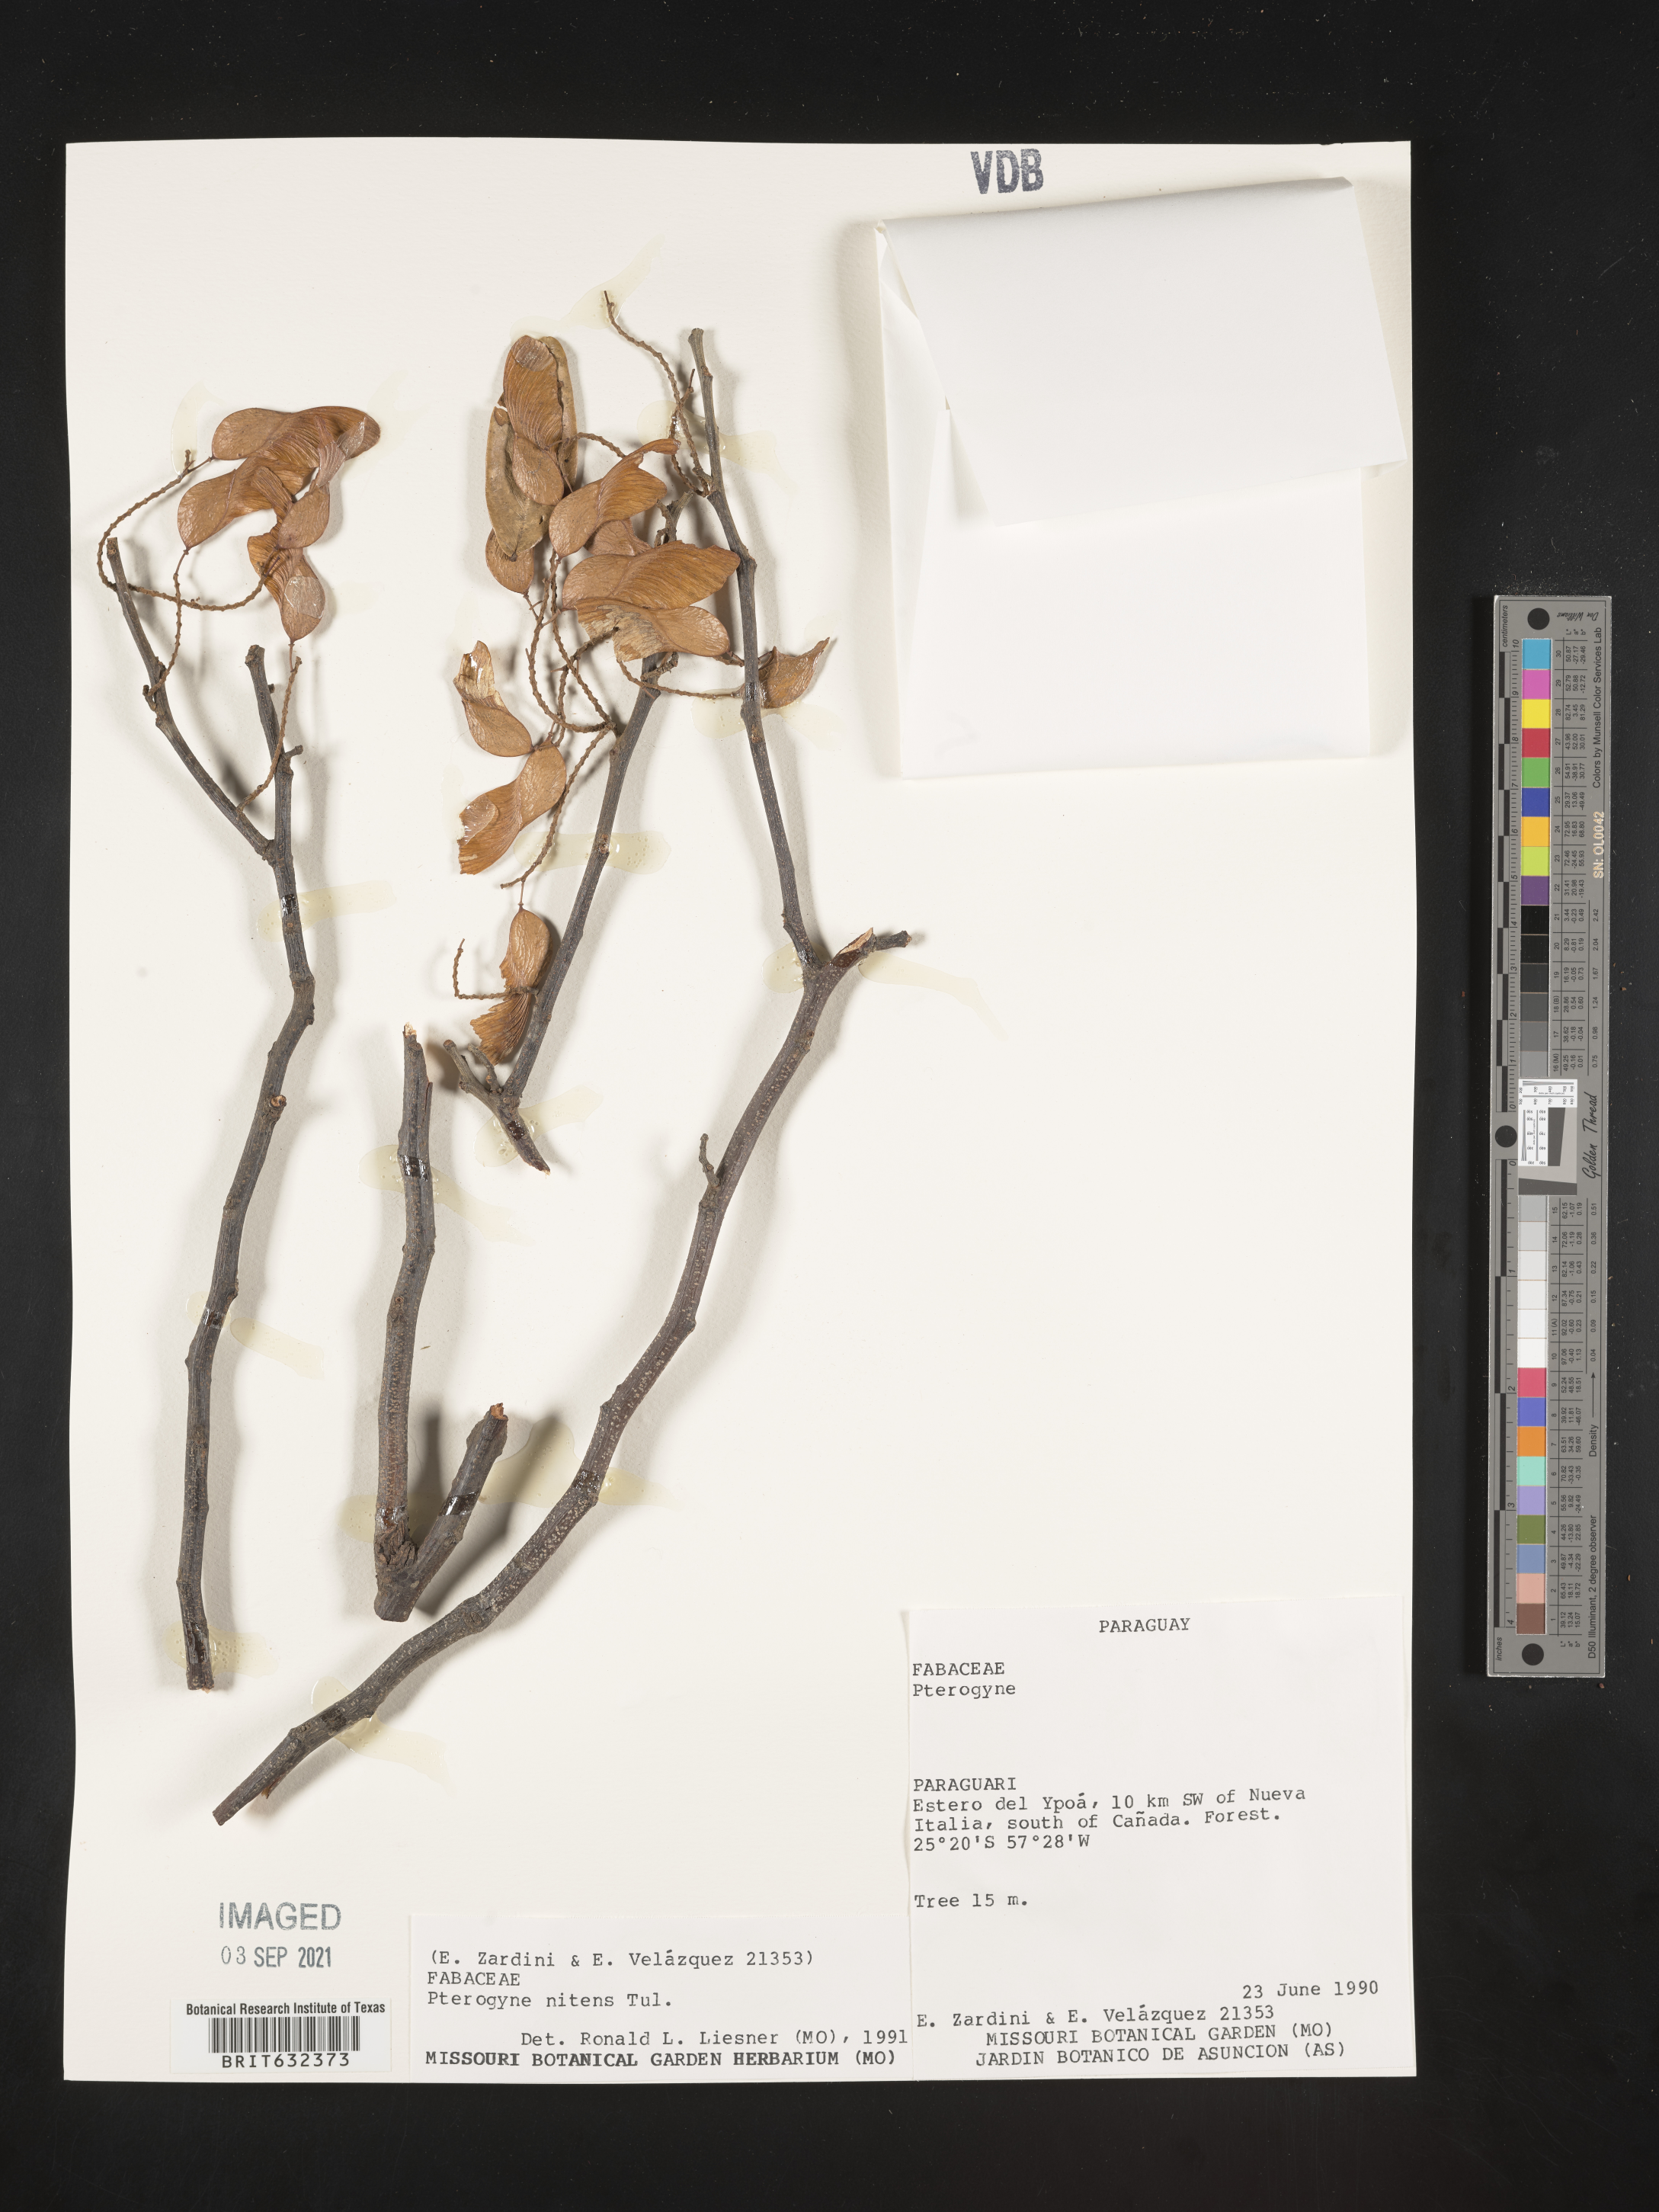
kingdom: Plantae
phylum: Tracheophyta
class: Magnoliopsida
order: Fabales
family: Fabaceae
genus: Pterogyne
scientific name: Pterogyne
